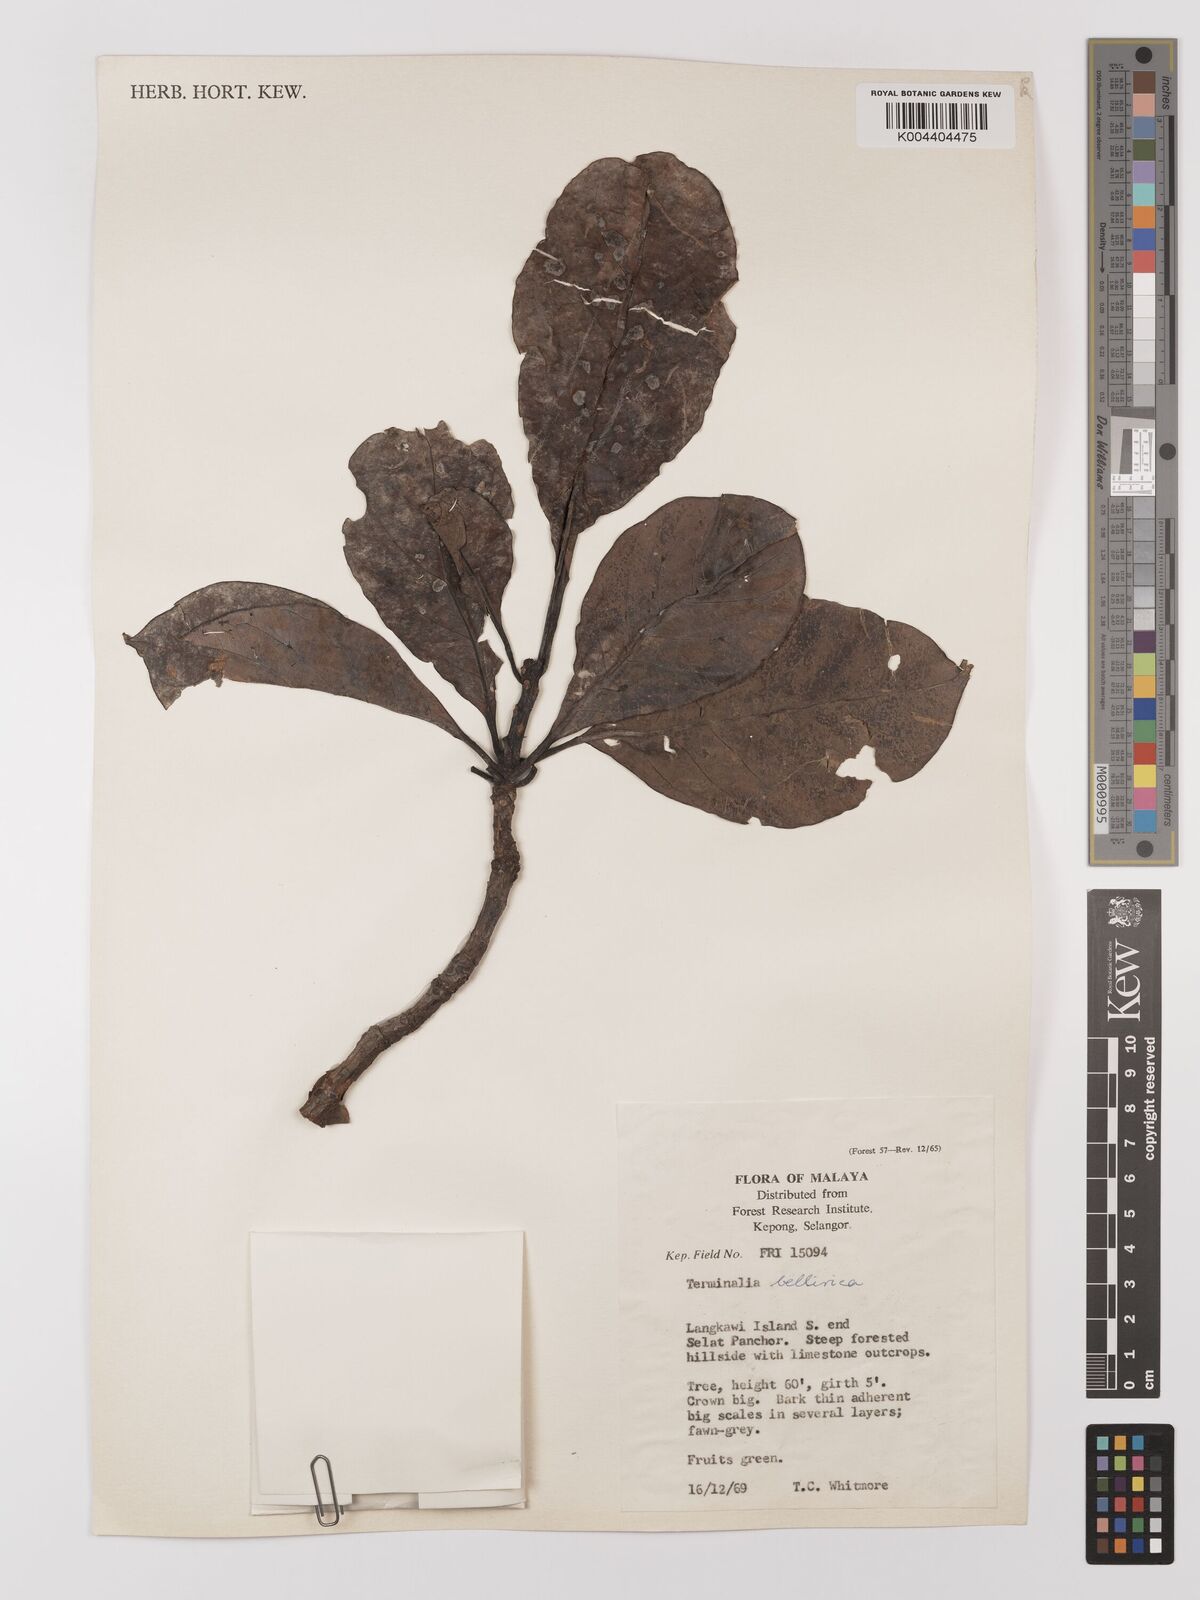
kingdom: Plantae
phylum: Tracheophyta
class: Magnoliopsida
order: Myrtales
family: Combretaceae
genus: Terminalia
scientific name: Terminalia calamansanai
